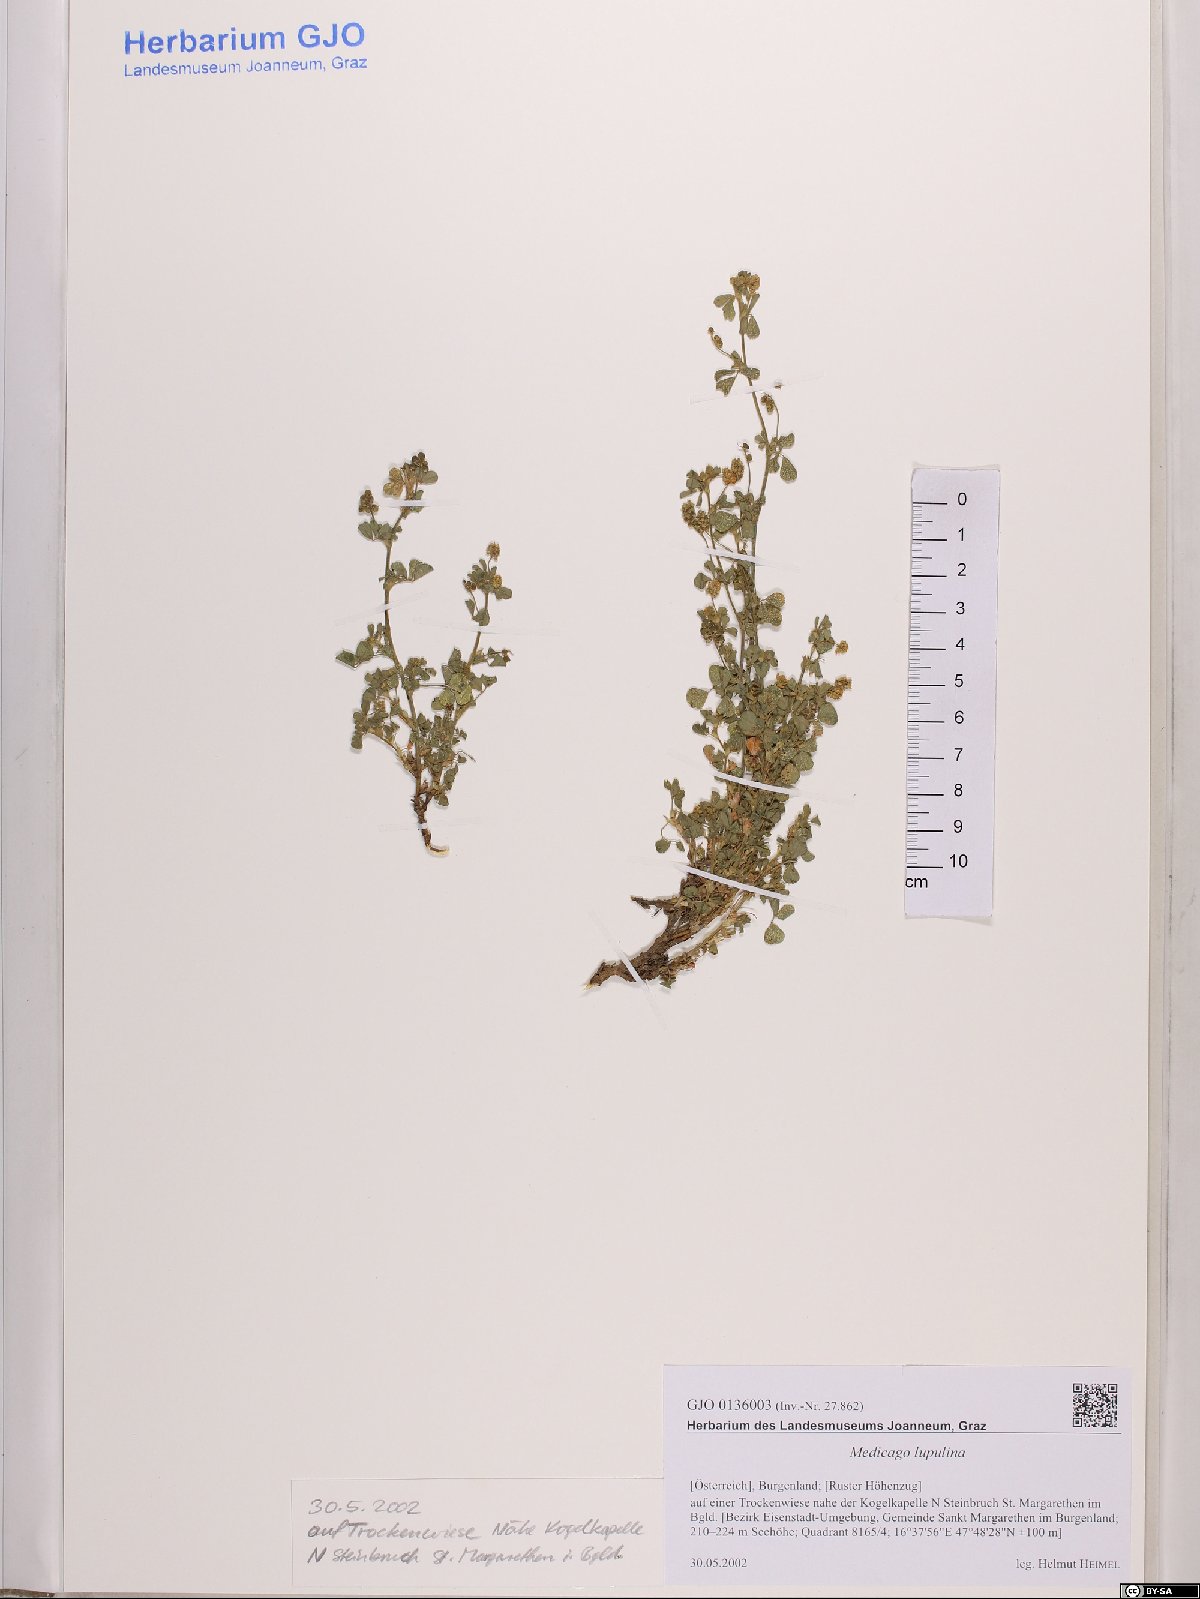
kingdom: Plantae
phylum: Tracheophyta
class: Magnoliopsida
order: Fabales
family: Fabaceae
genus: Medicago
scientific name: Medicago lupulina
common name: Black medick
